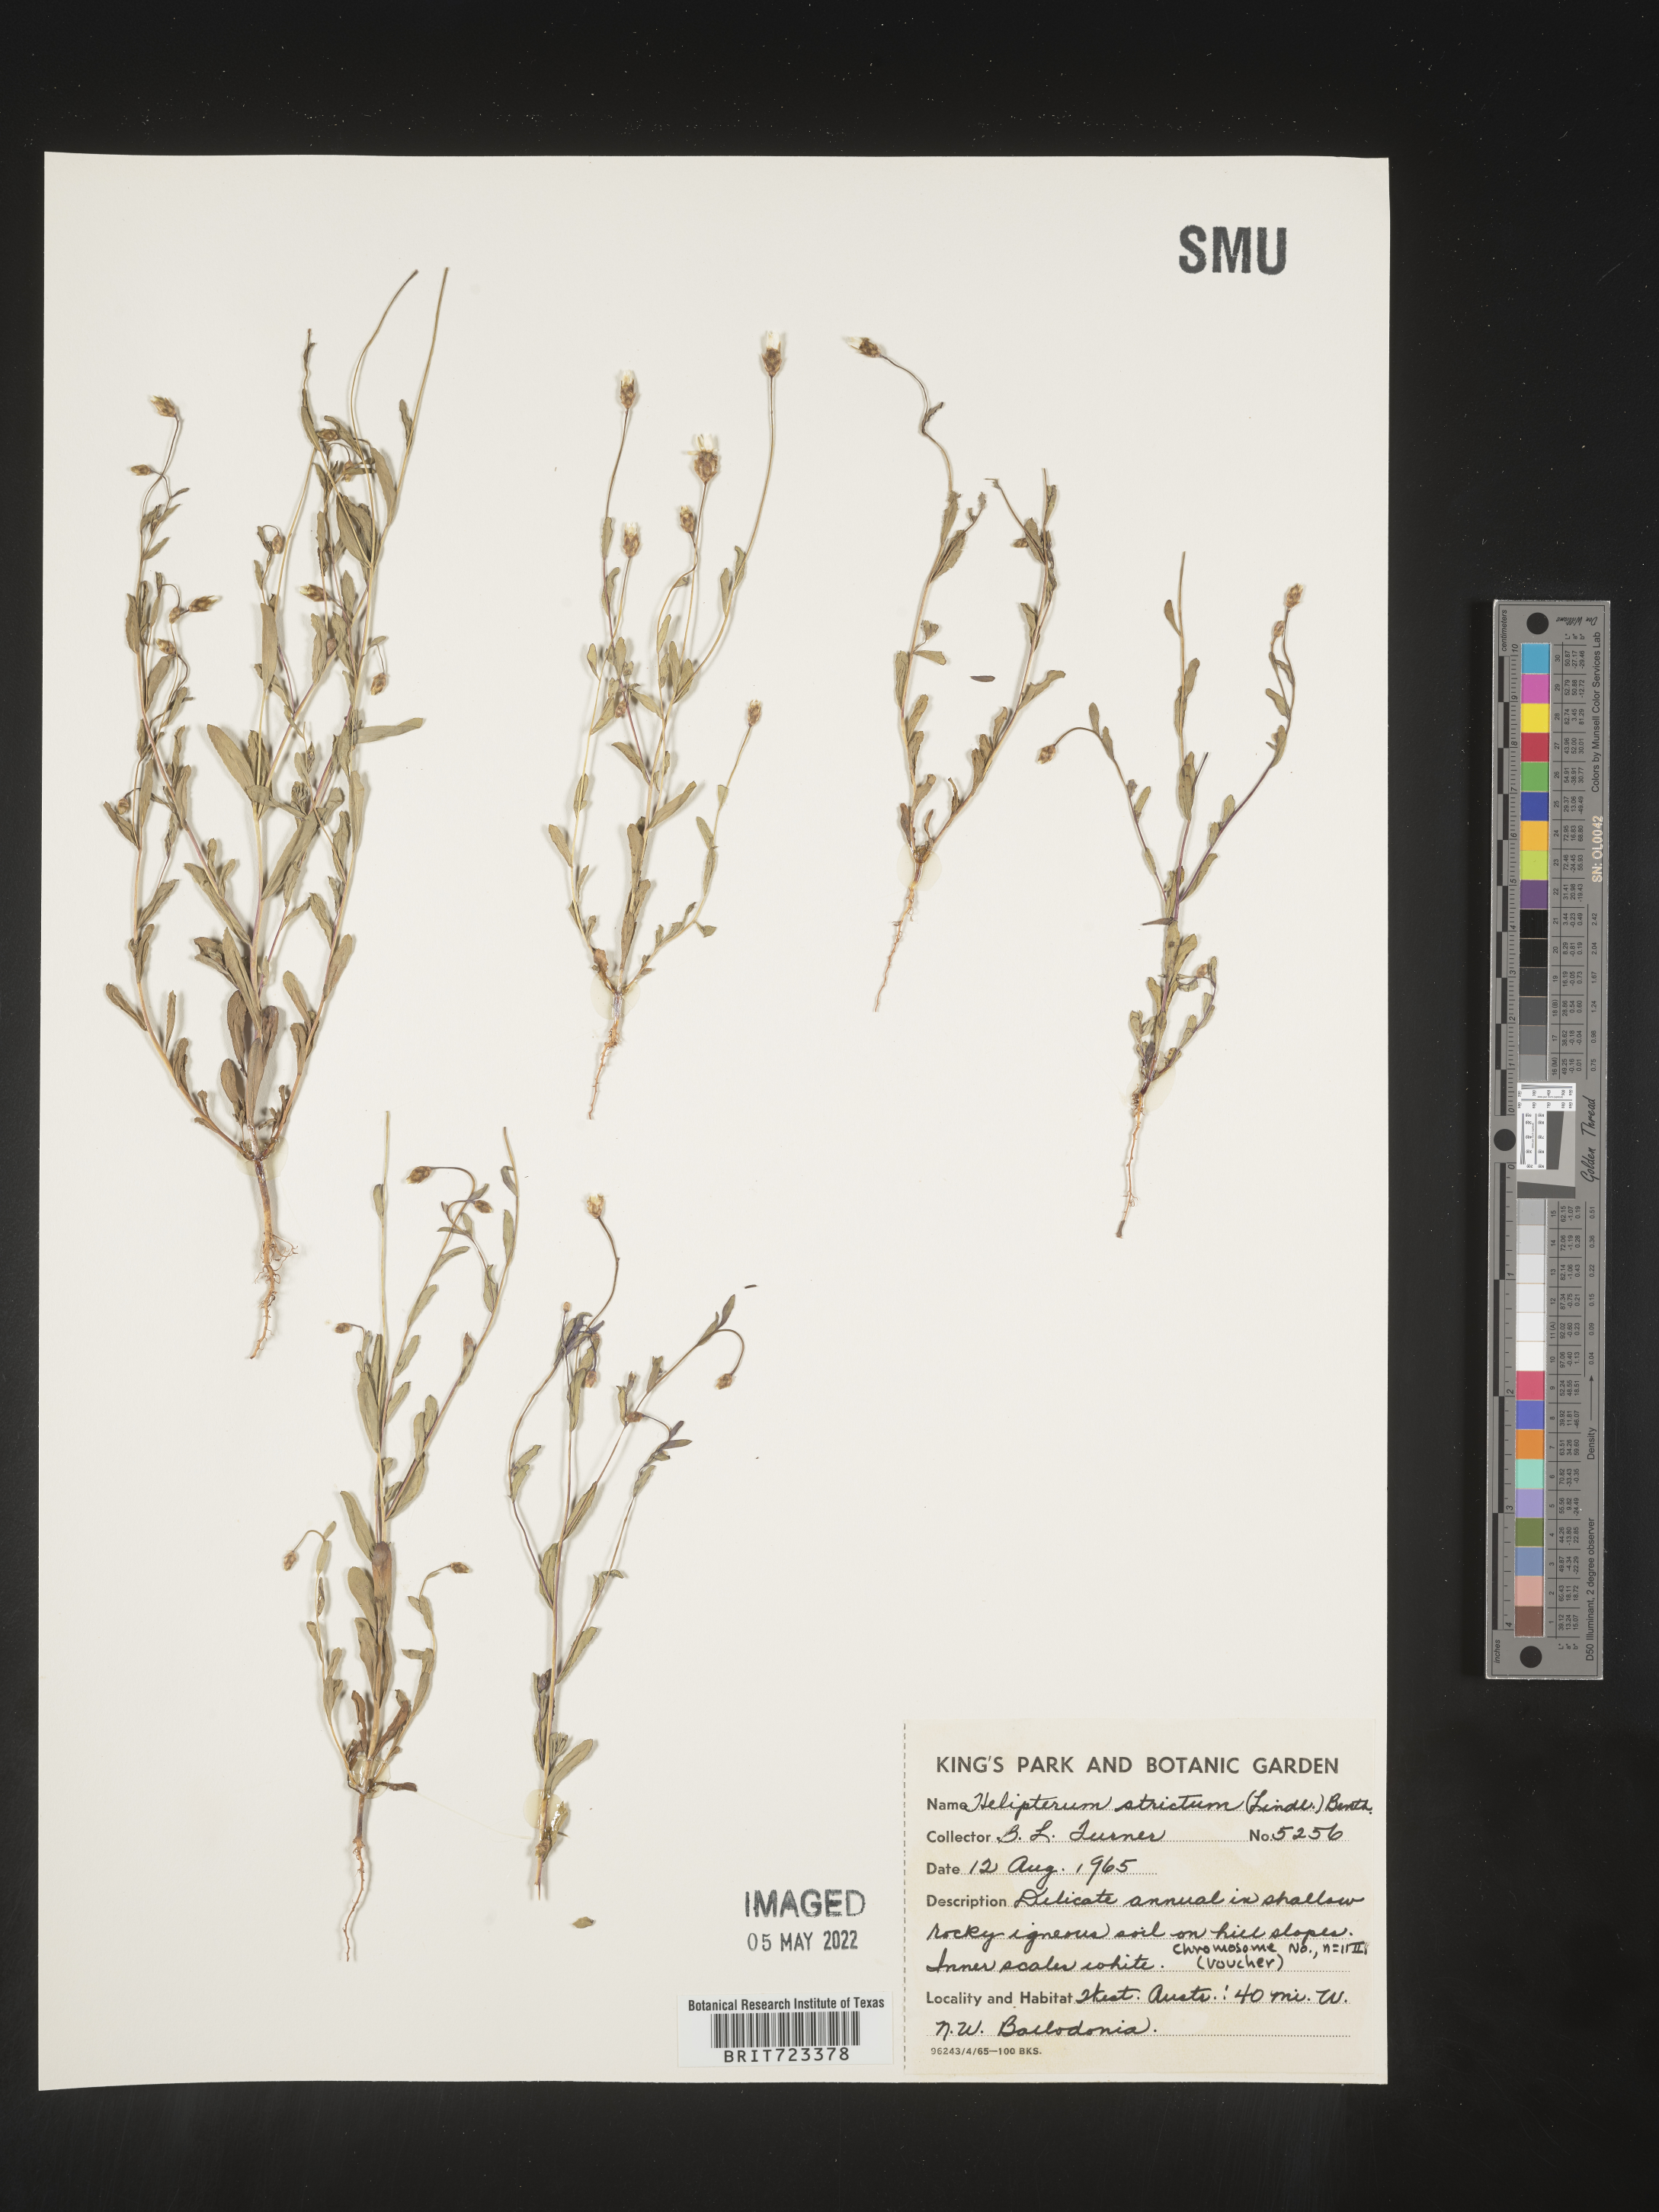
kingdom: Plantae
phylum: Tracheophyta
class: Magnoliopsida
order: Asterales
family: Asteraceae
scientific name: Asteraceae
